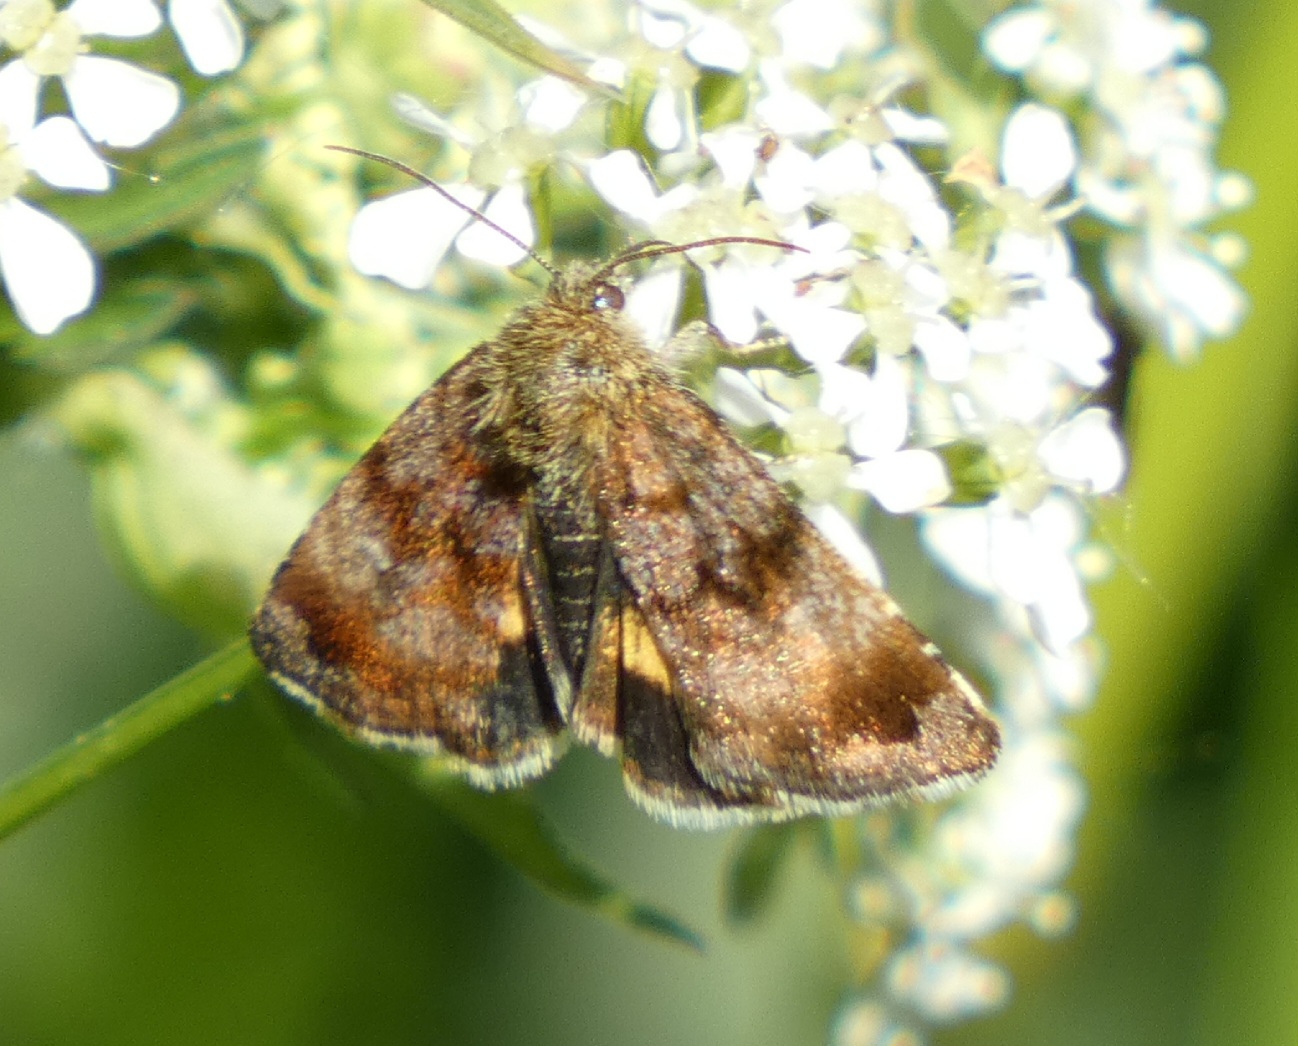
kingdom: Animalia
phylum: Arthropoda
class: Insecta
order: Lepidoptera
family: Noctuidae
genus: Panemeria
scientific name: Panemeria tenebrata
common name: Hønsetarm-glansugle
